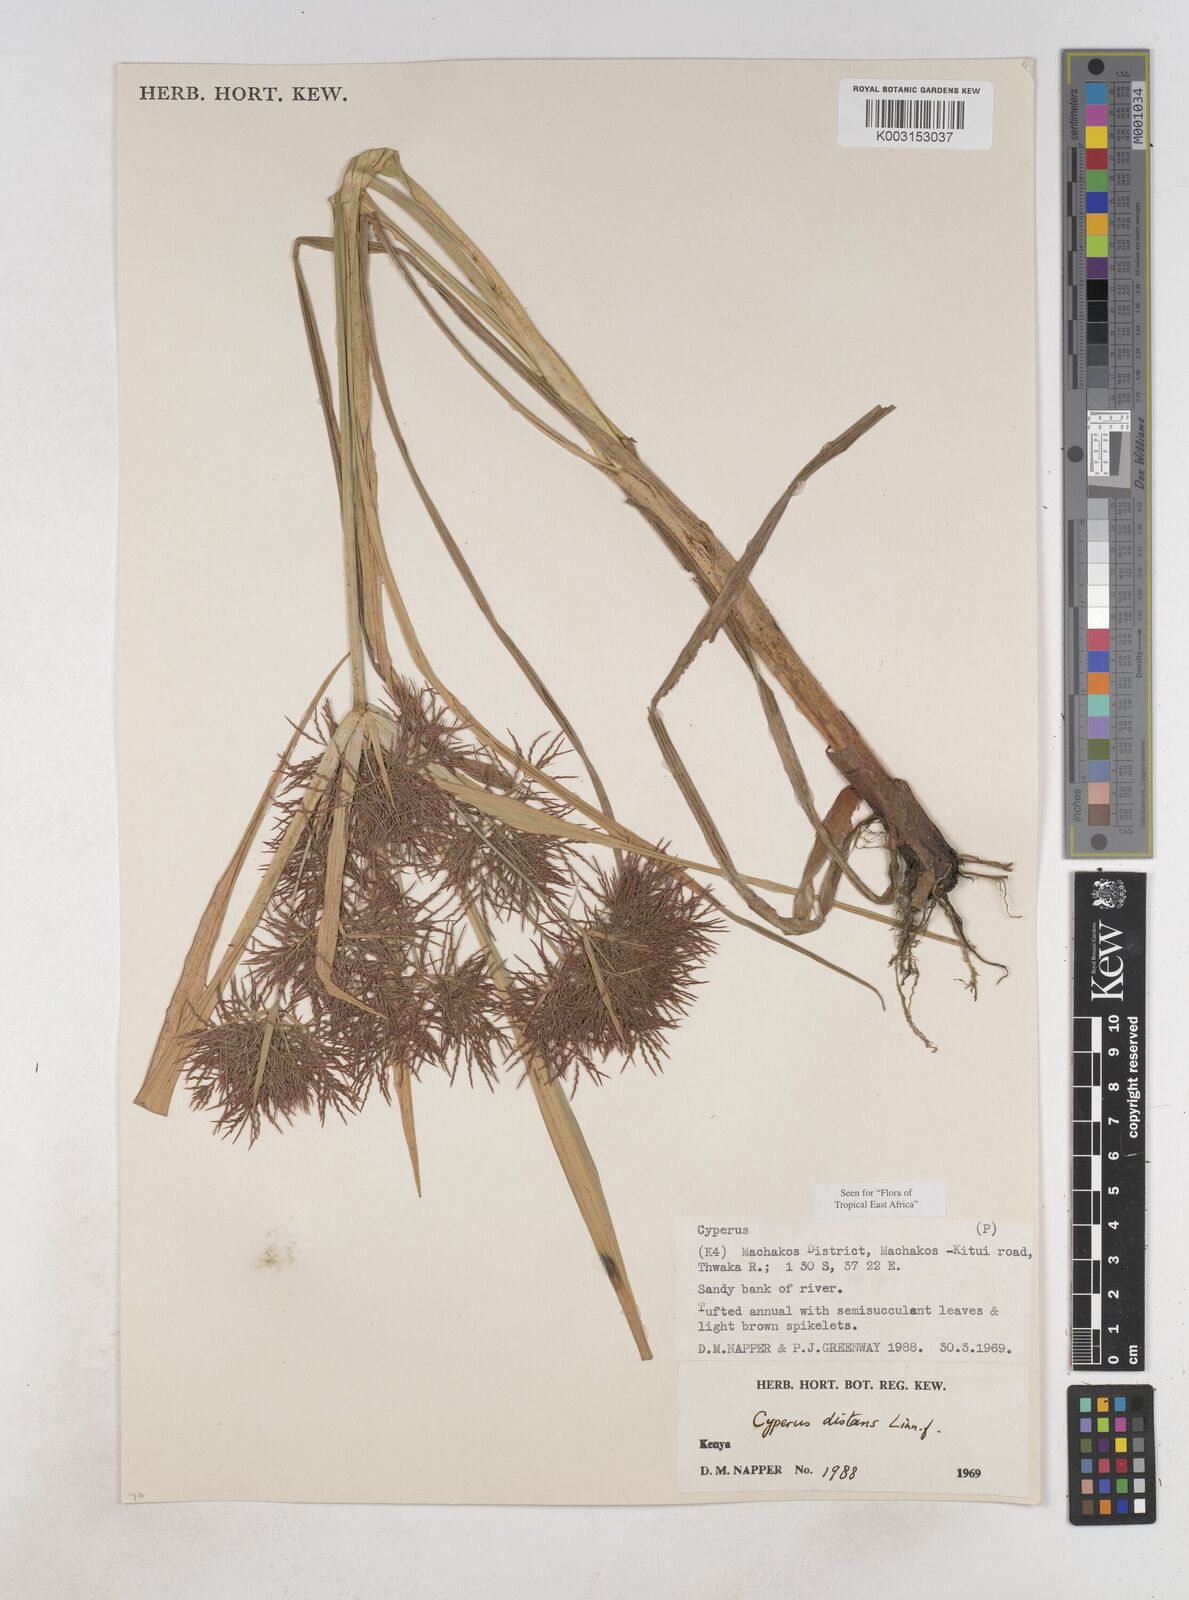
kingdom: Plantae
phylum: Tracheophyta
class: Liliopsida
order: Poales
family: Cyperaceae
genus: Cyperus
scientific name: Cyperus distans
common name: Slender cyperus
